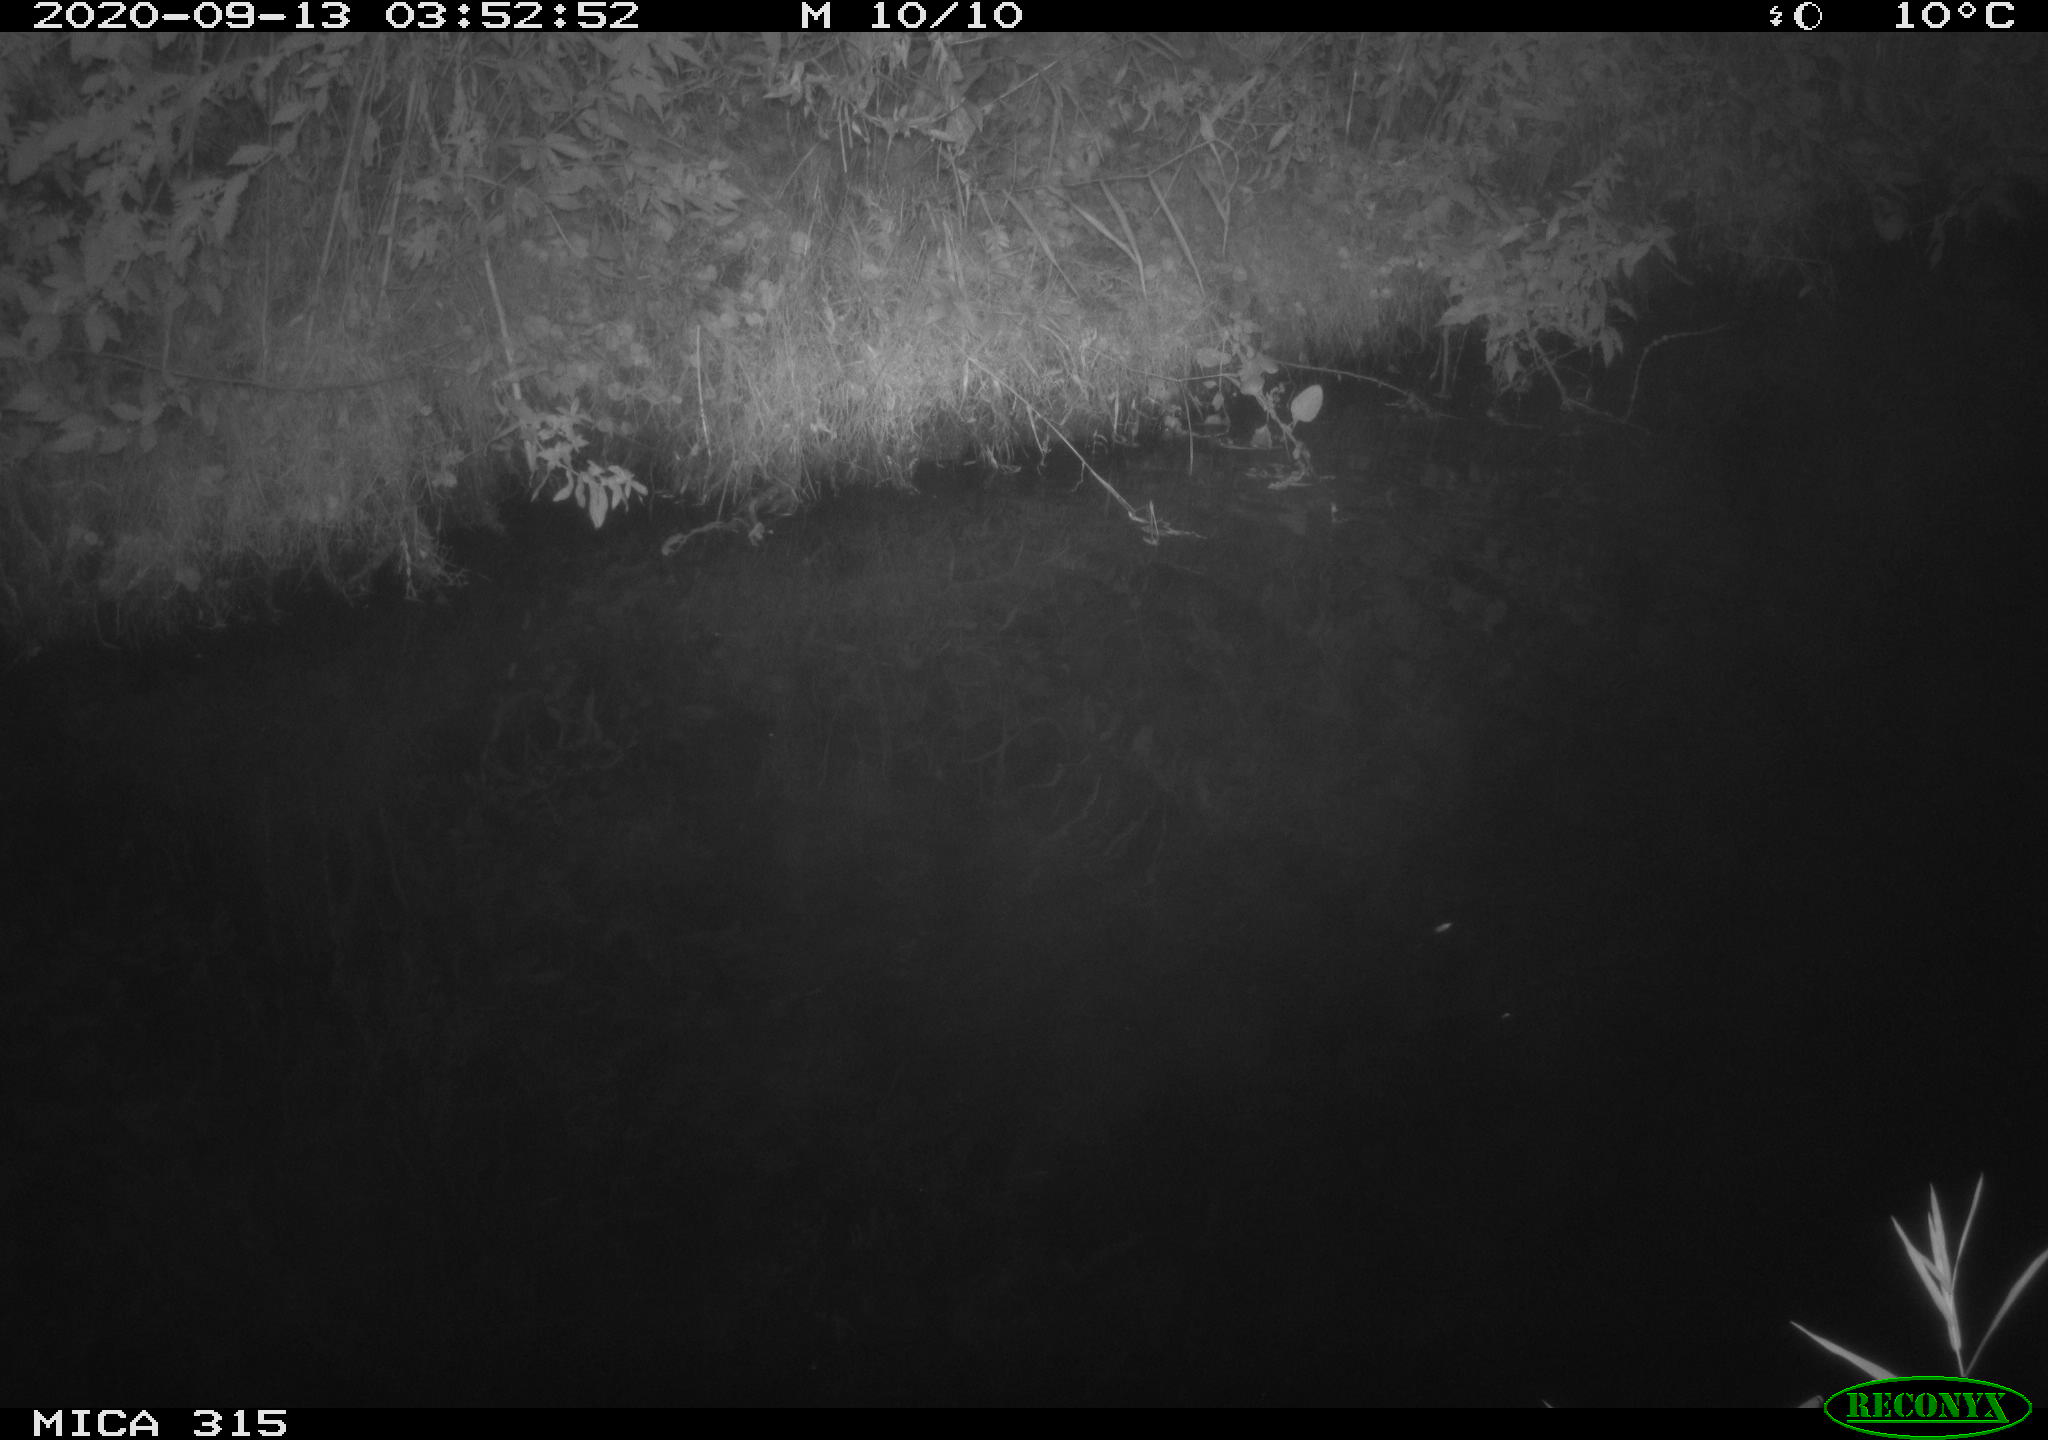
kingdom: Animalia
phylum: Chordata
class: Aves
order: Anseriformes
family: Anatidae
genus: Anas
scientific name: Anas platyrhynchos
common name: Mallard
